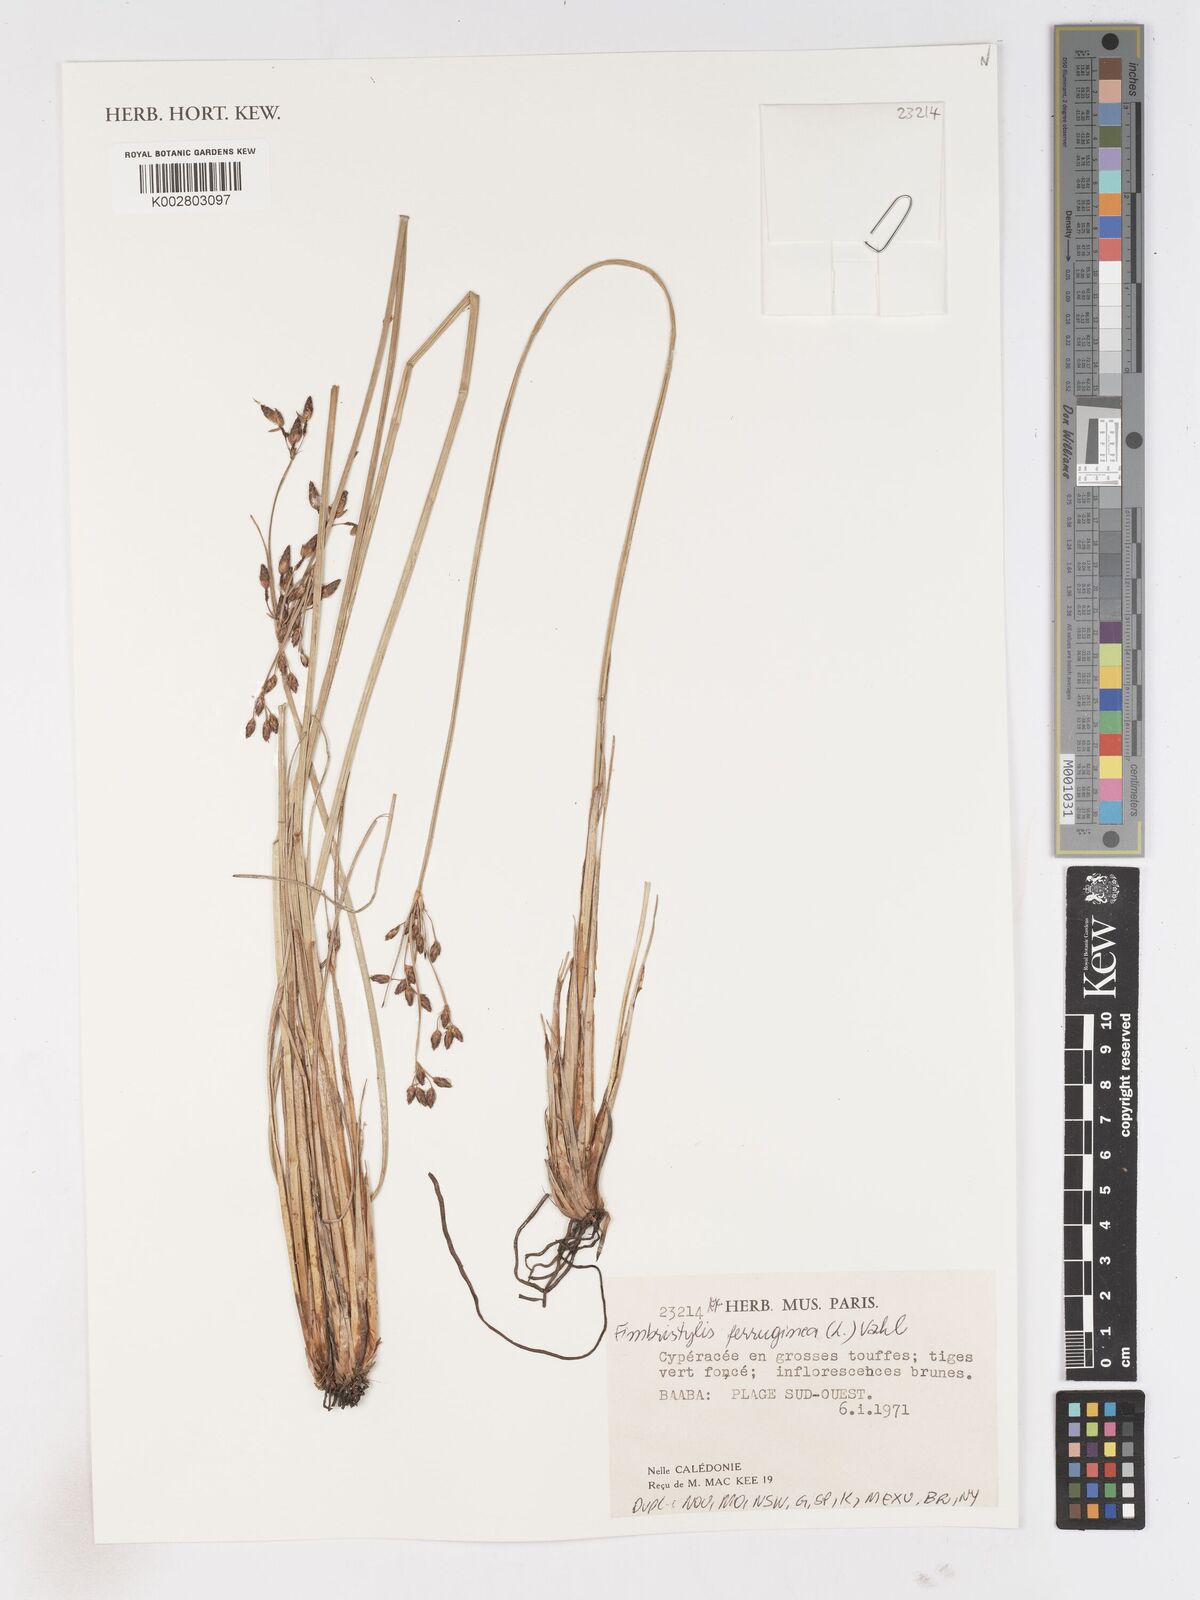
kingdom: Plantae
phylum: Tracheophyta
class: Liliopsida
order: Poales
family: Cyperaceae
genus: Fimbristylis
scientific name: Fimbristylis ferruginea
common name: West indian fimbry
